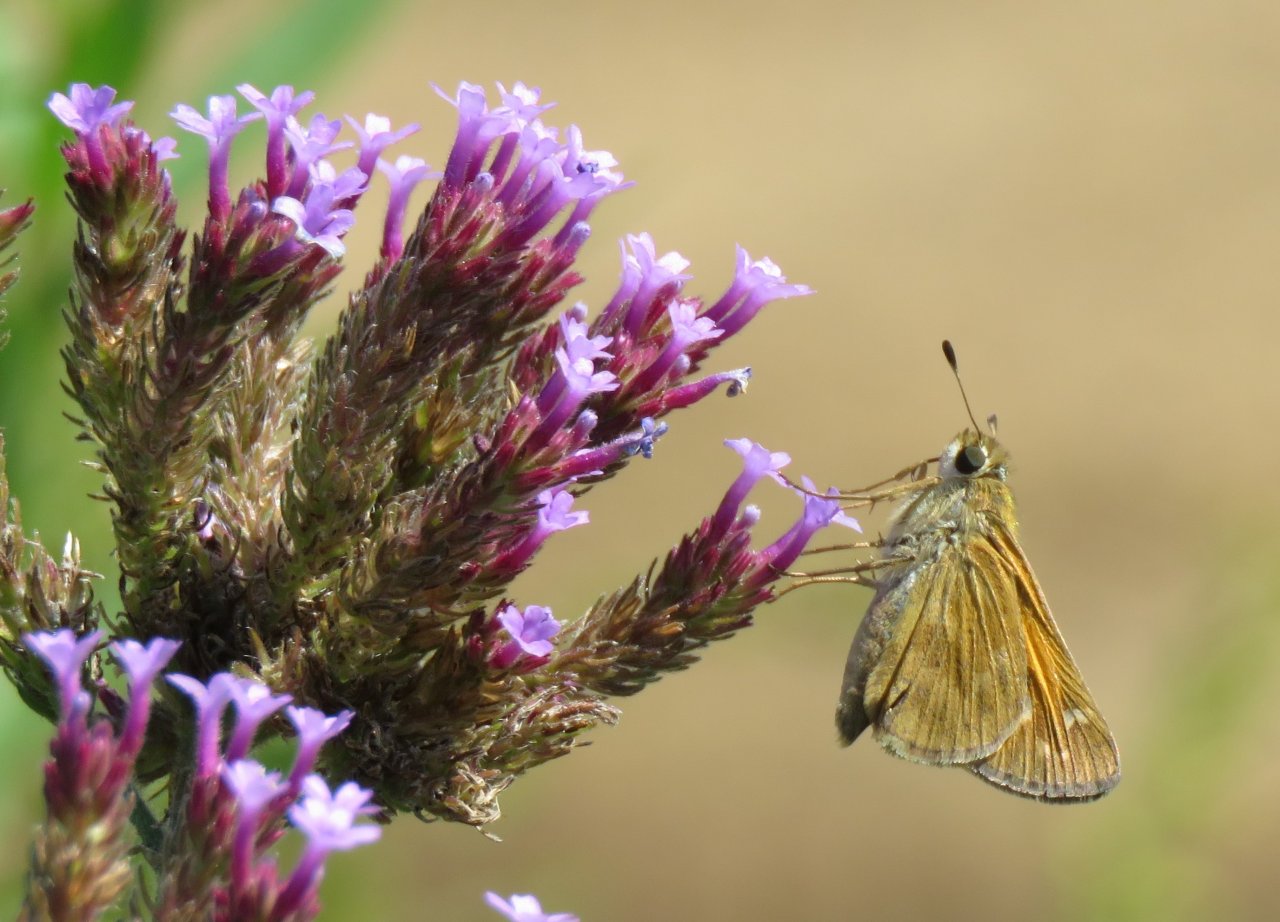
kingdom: Animalia
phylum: Arthropoda
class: Insecta
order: Lepidoptera
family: Hesperiidae
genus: Atalopedes
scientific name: Atalopedes campestris
